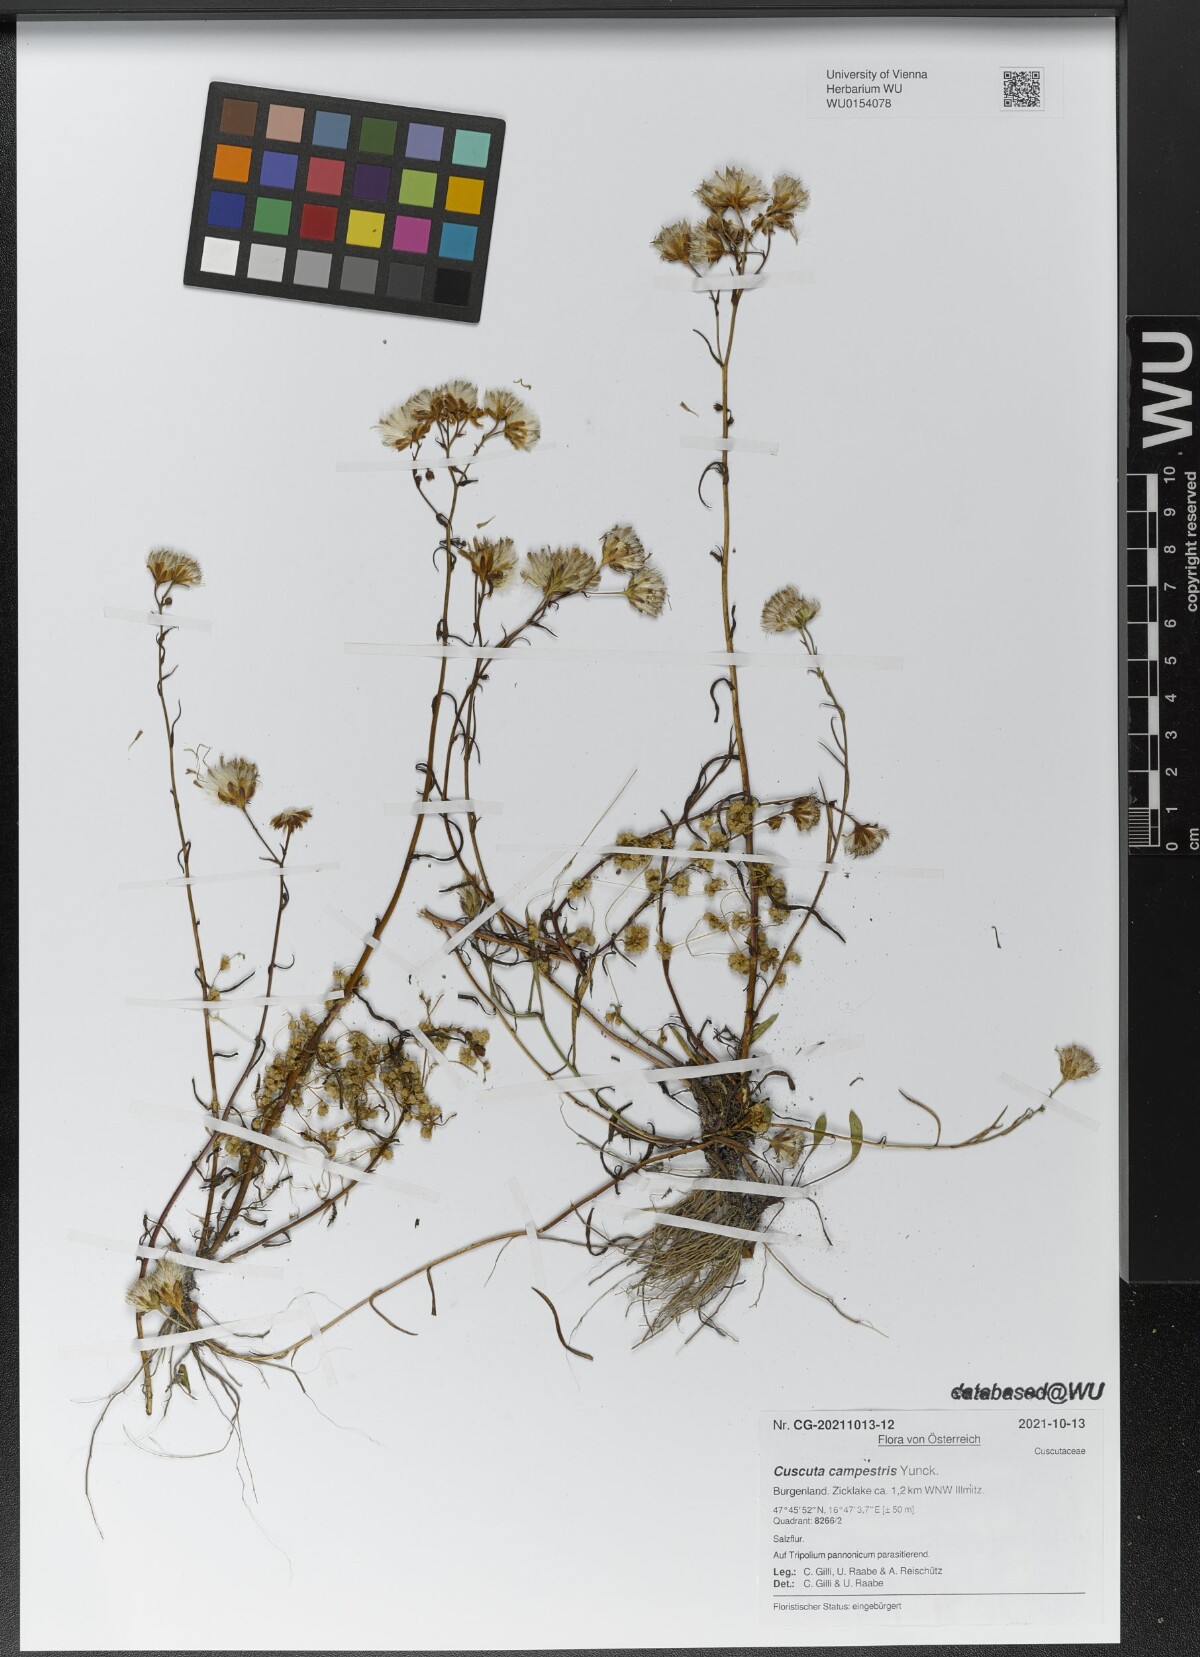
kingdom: Plantae
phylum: Tracheophyta
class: Magnoliopsida
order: Solanales
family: Convolvulaceae
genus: Cuscuta
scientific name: Cuscuta campestris
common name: Yellow dodder
